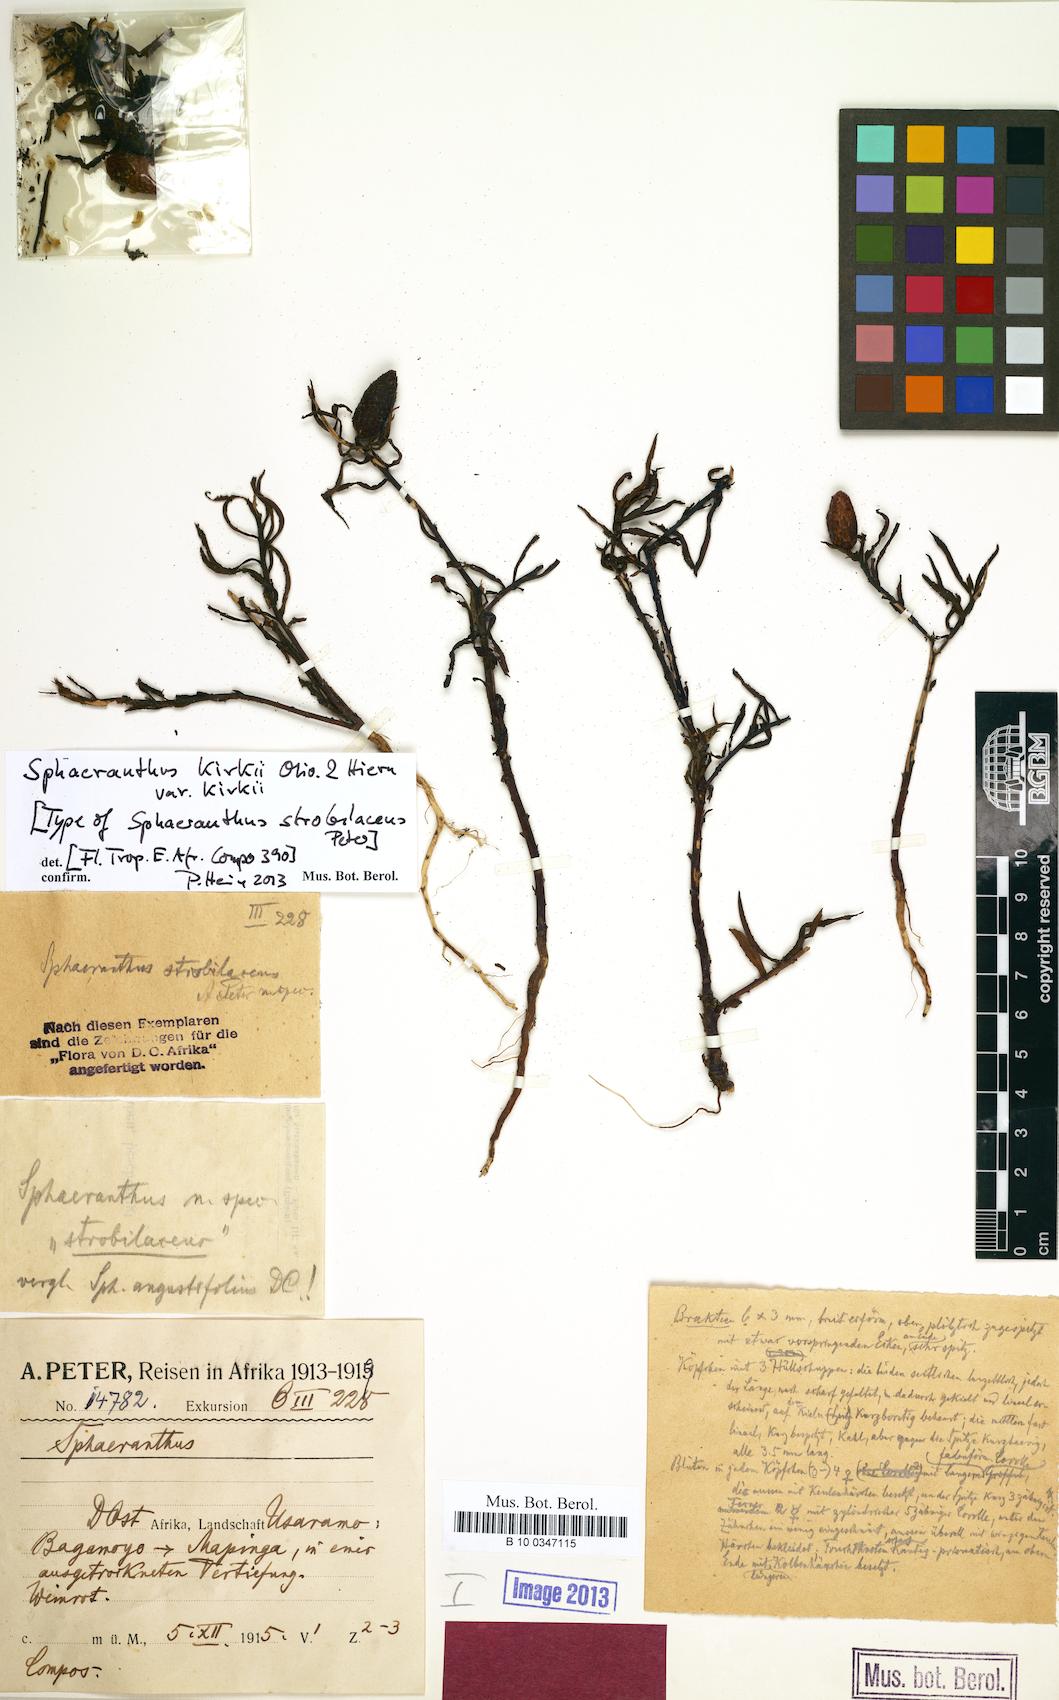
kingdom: Plantae
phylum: Tracheophyta
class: Magnoliopsida
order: Asterales
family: Asteraceae
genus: Sphaeranthus
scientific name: Sphaeranthus kirkii
